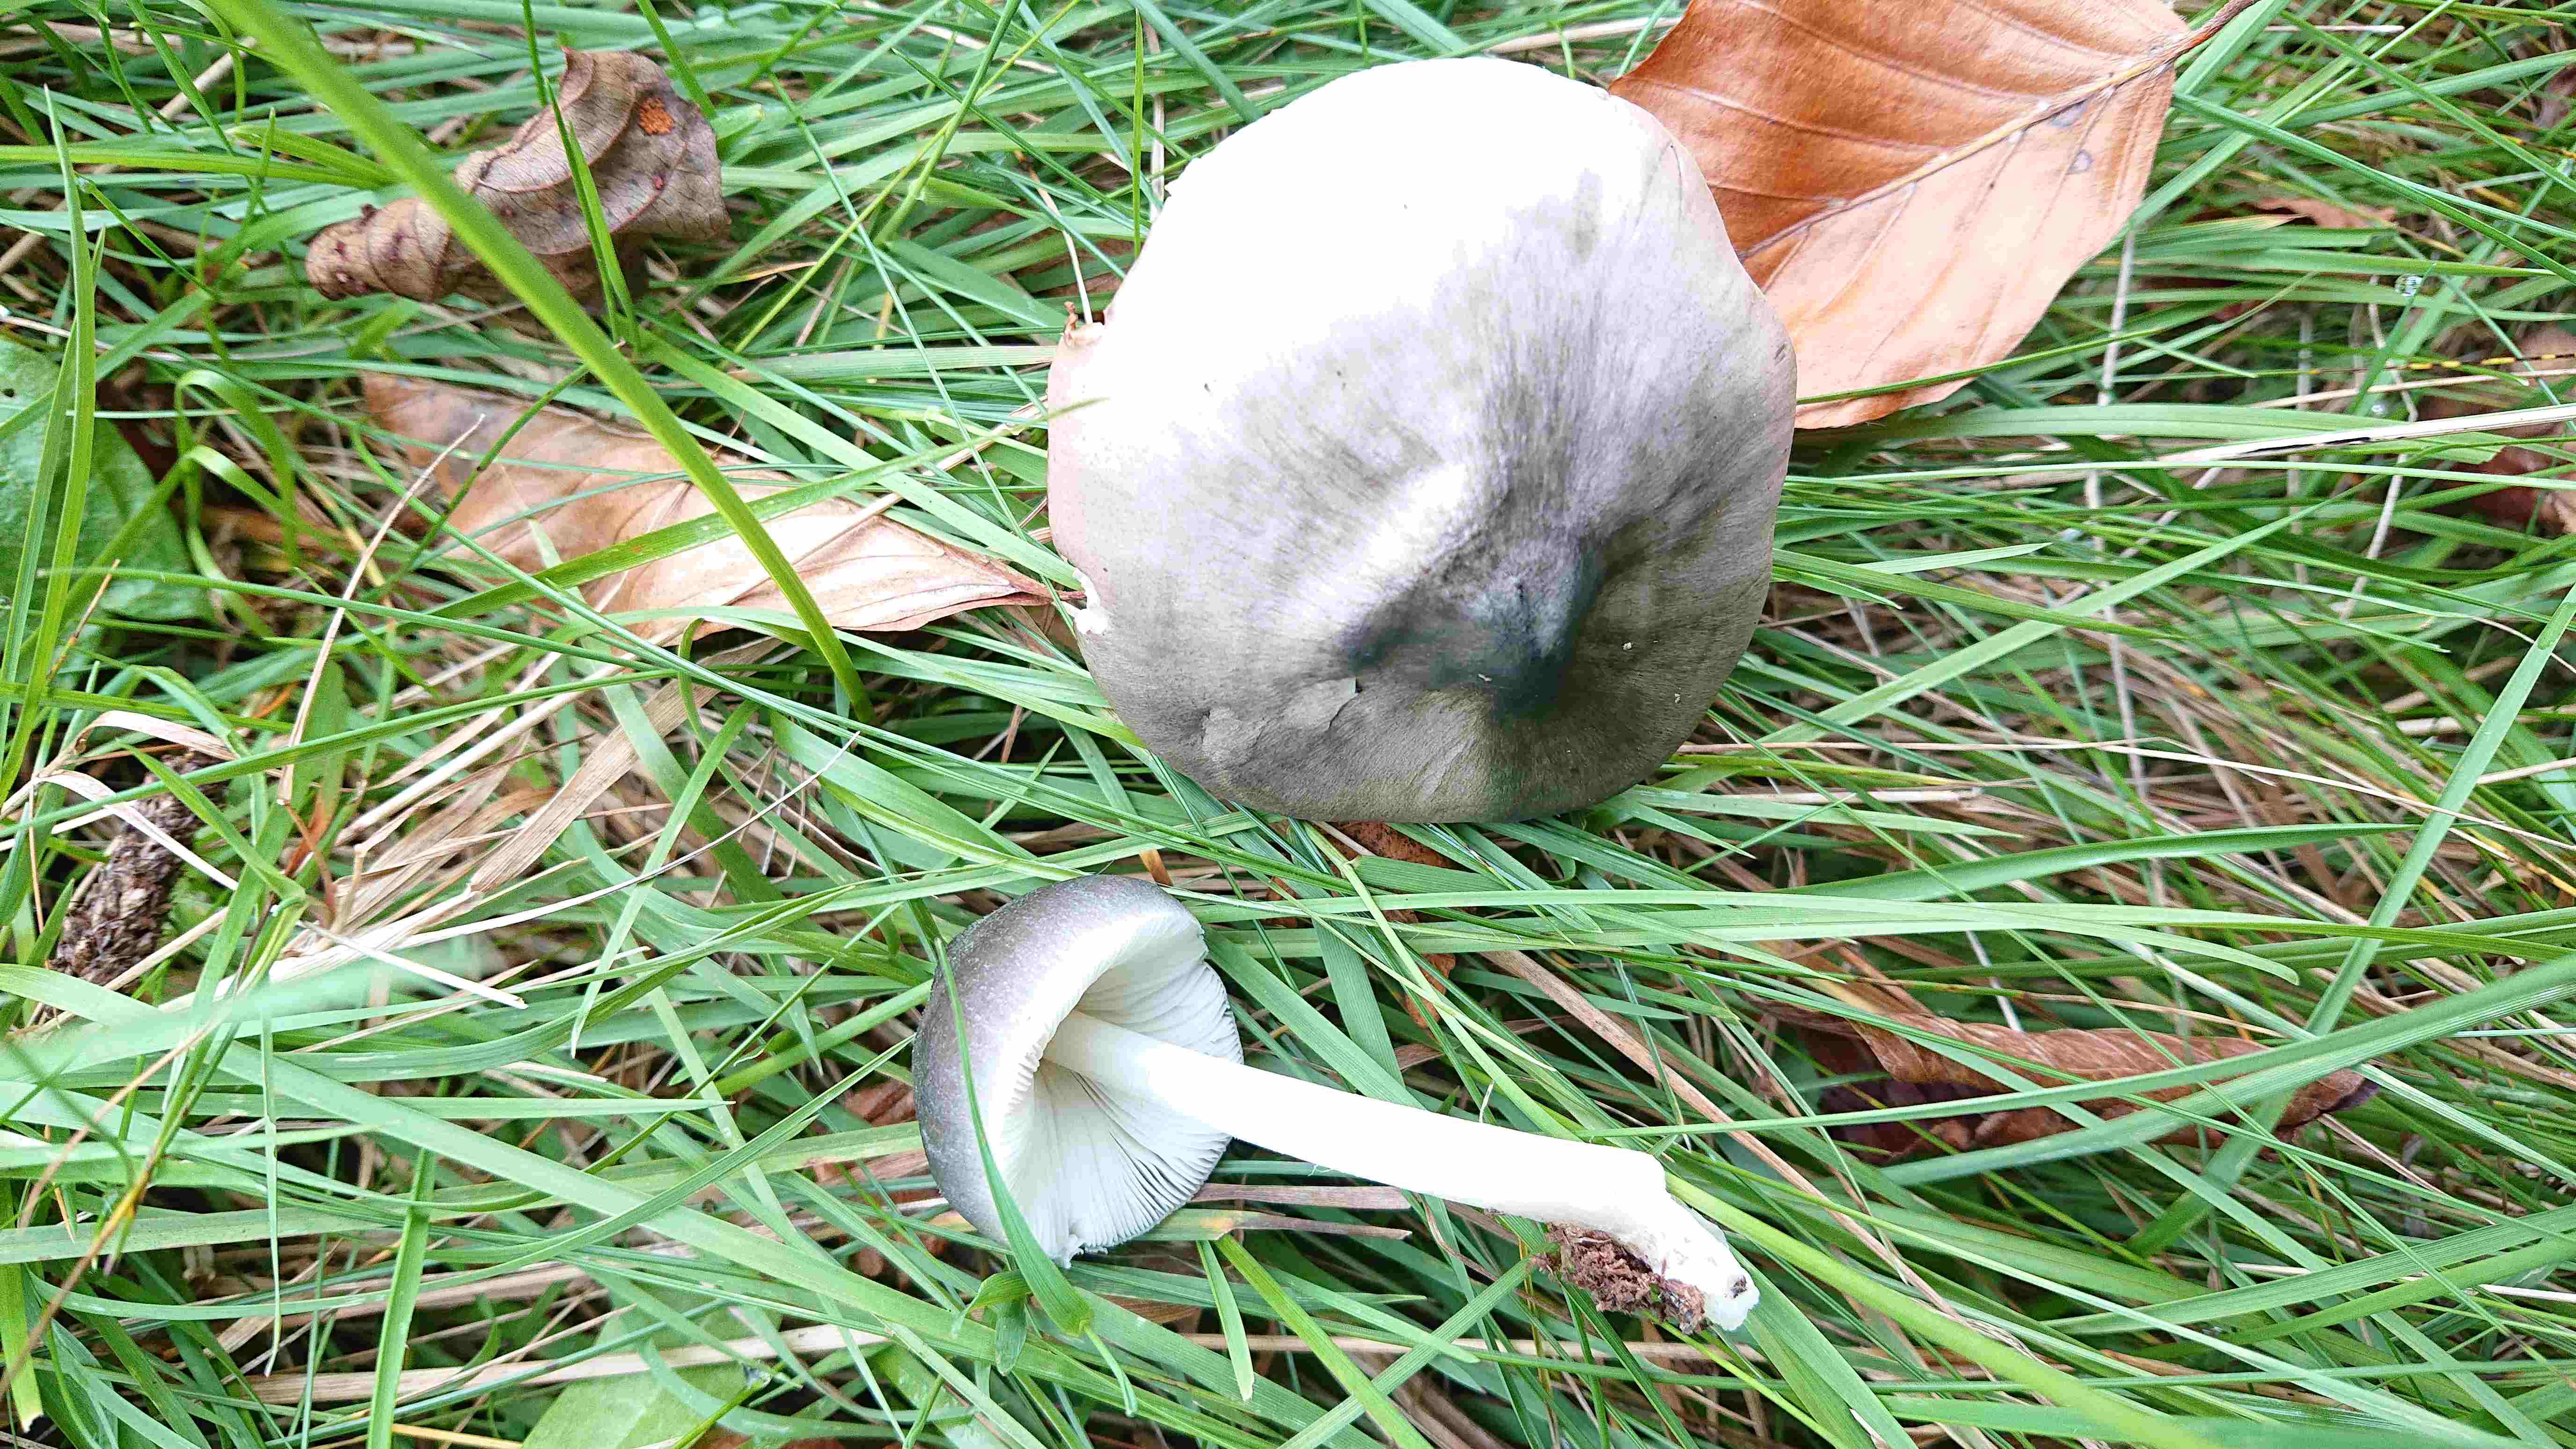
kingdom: Fungi
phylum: Basidiomycota
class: Agaricomycetes
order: Agaricales
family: Pluteaceae
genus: Pluteus
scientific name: Pluteus salicinus
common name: stiv skærmhat
